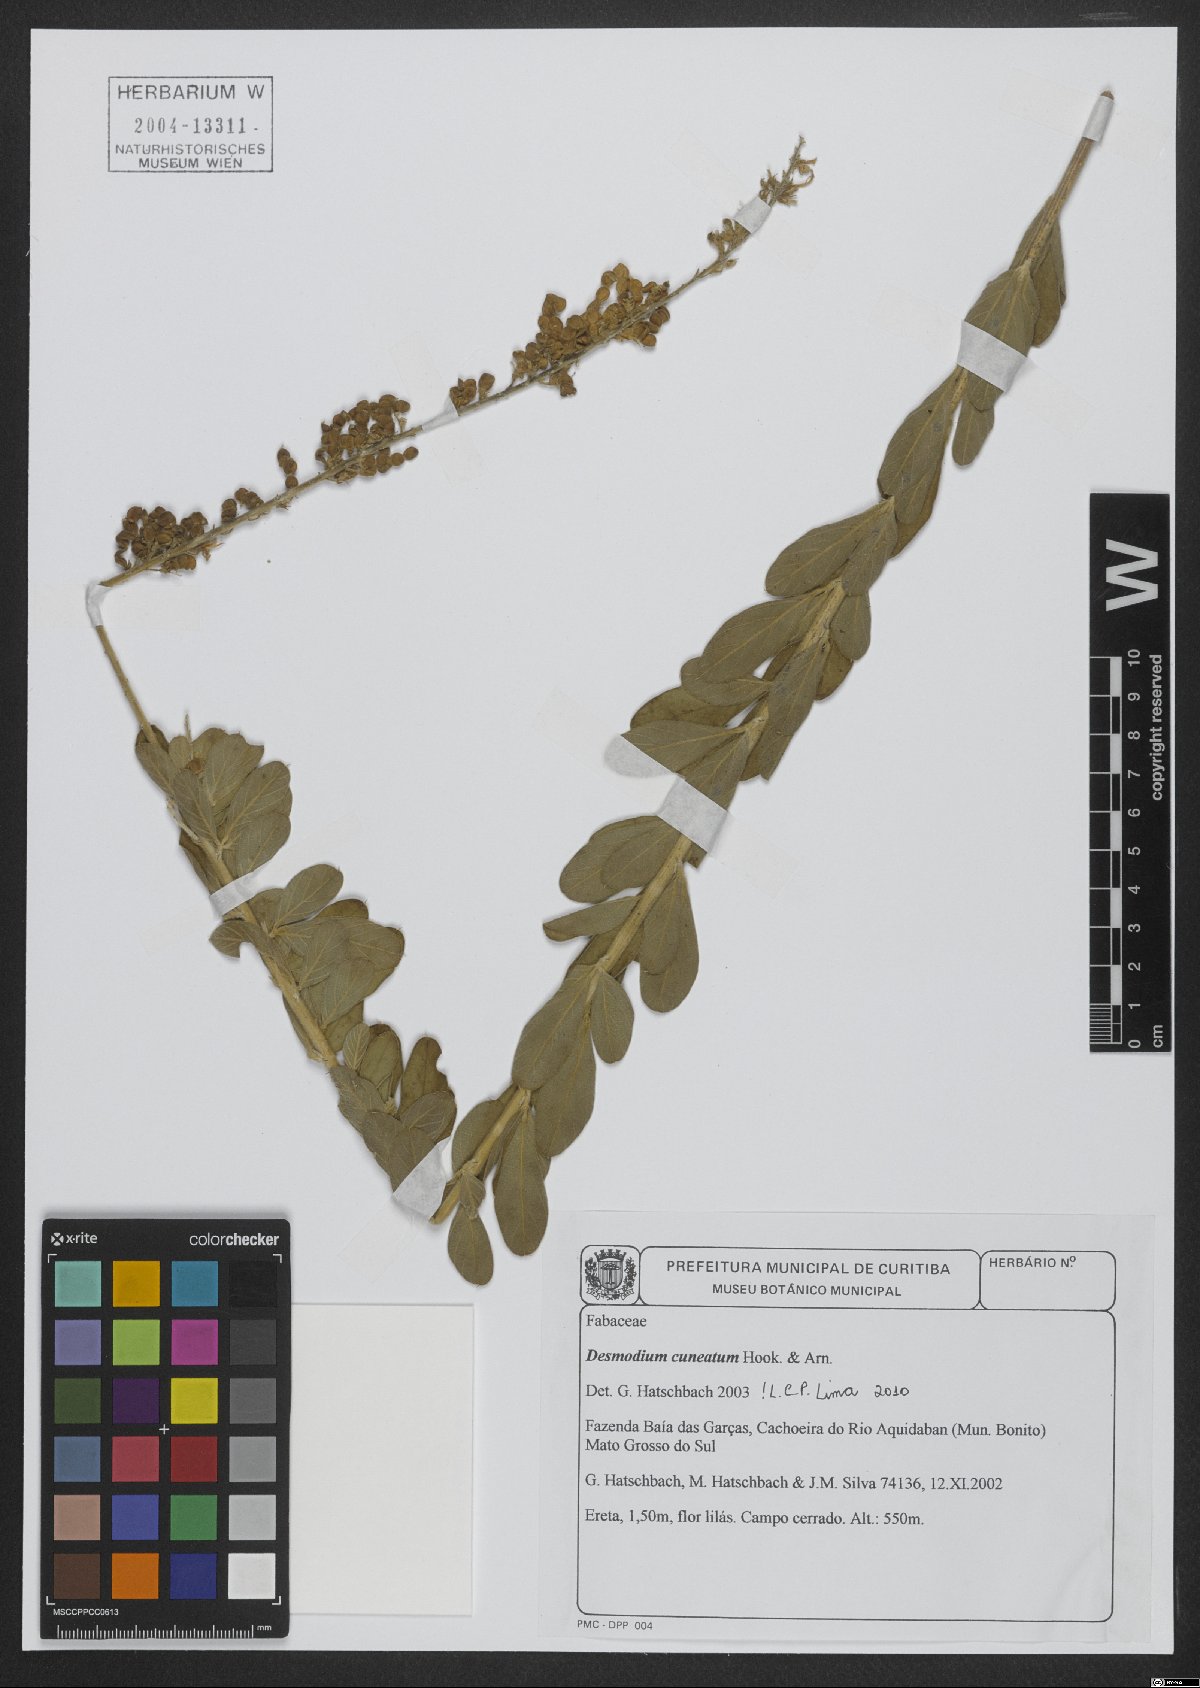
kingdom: Plantae
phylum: Tracheophyta
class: Magnoliopsida
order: Fabales
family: Fabaceae
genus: Desmodium
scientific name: Desmodium cuneatum
